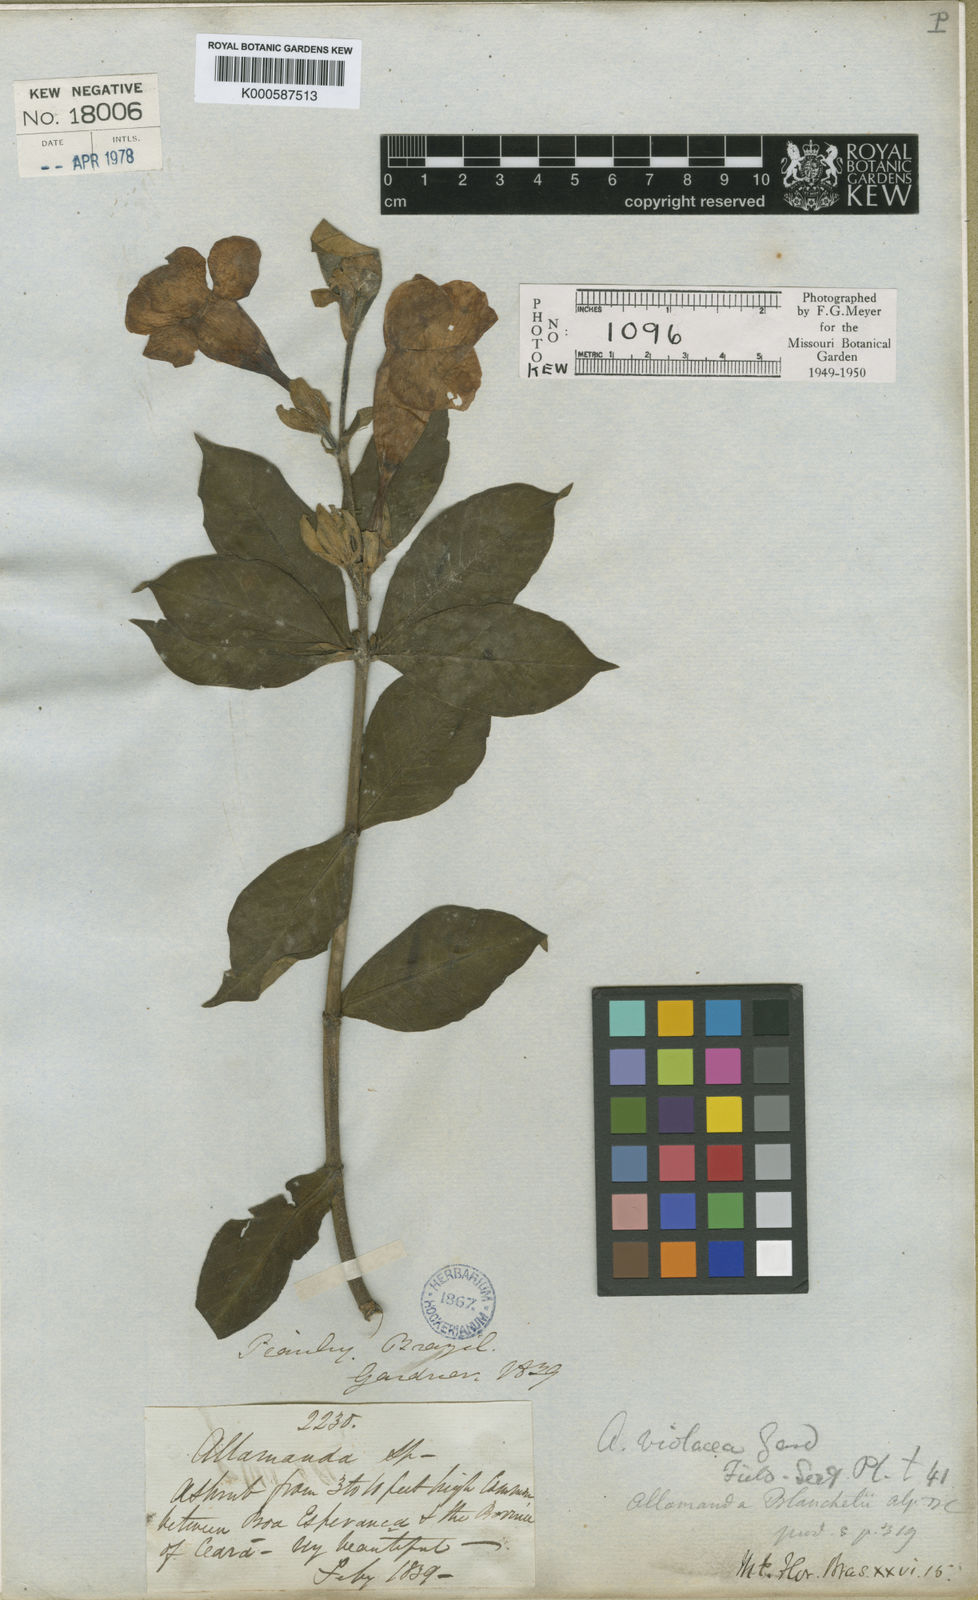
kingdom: Plantae
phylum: Tracheophyta
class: Magnoliopsida
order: Gentianales
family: Apocynaceae
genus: Allamanda
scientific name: Allamanda blanchetii
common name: Purple allamanda
